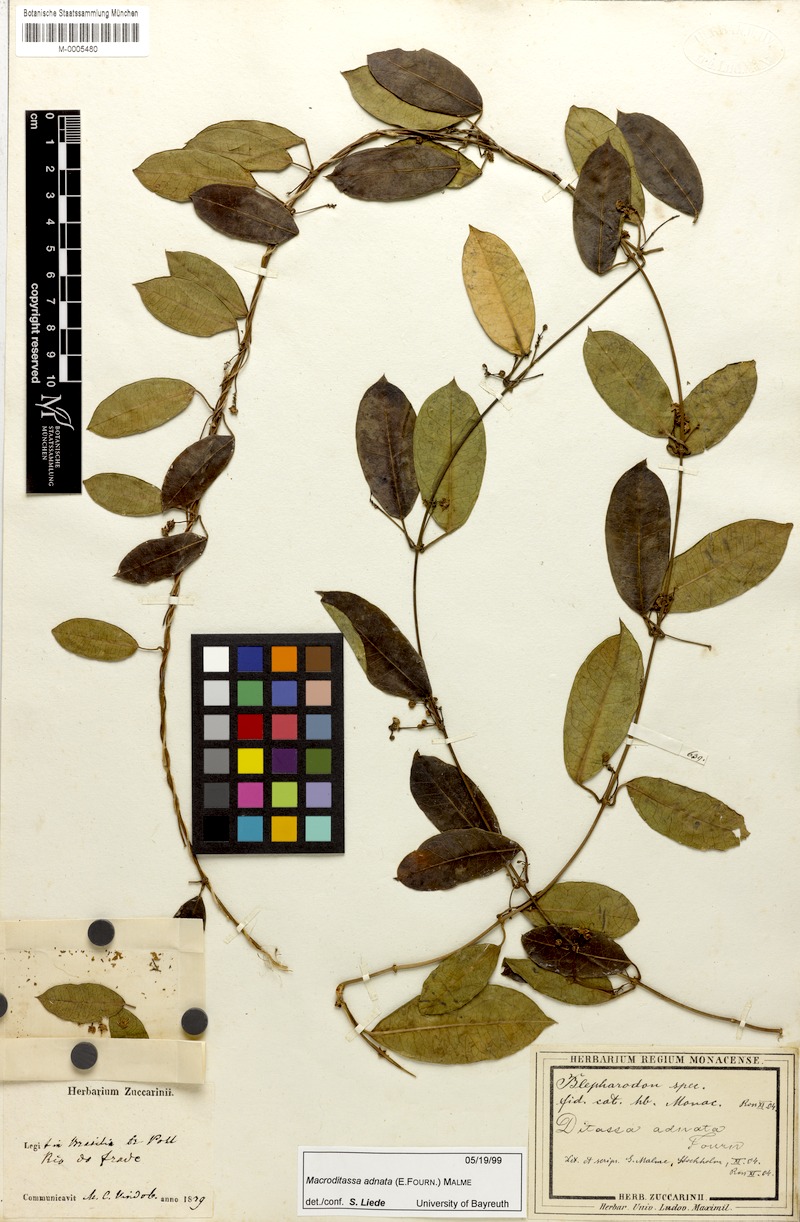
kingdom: Plantae
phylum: Tracheophyta
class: Magnoliopsida
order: Gentianales
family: Apocynaceae
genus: Peplonia
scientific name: Peplonia adnata
